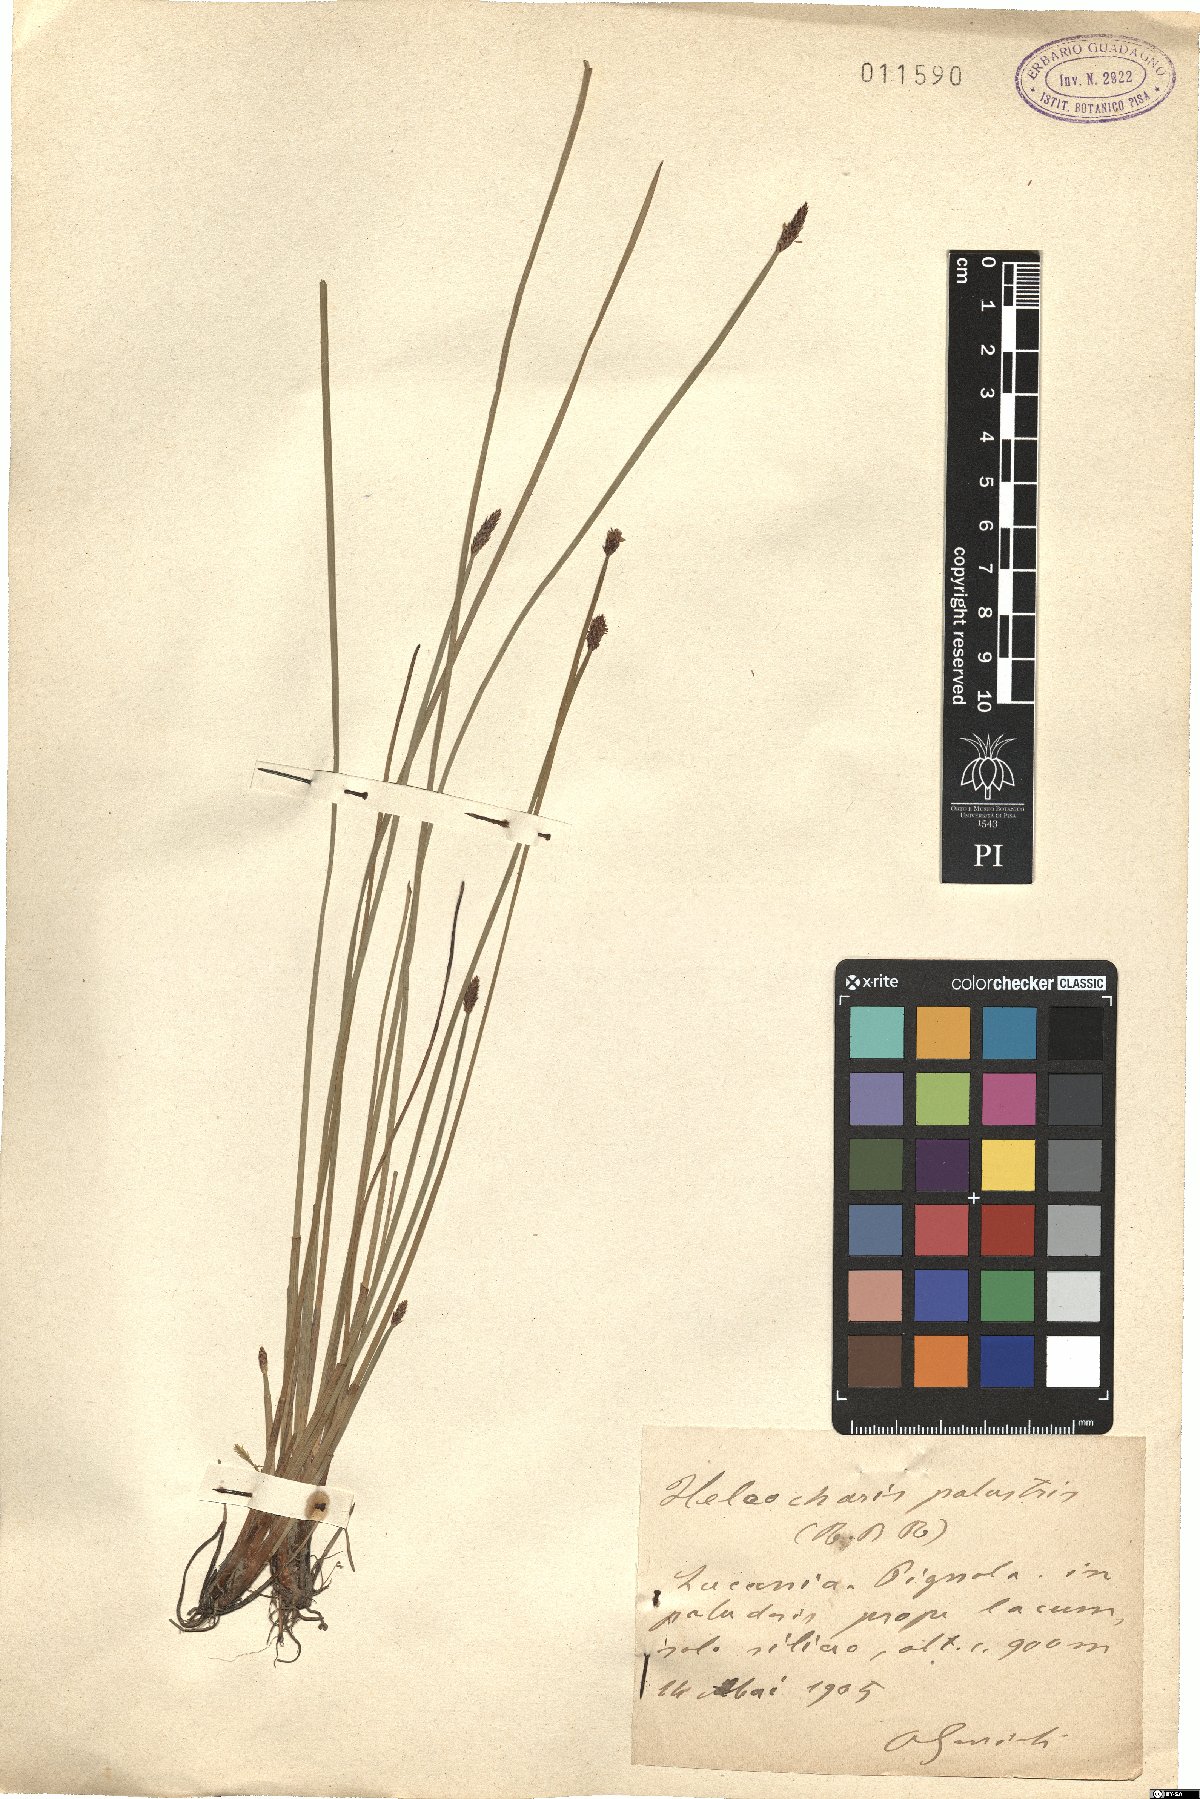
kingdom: Plantae
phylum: Tracheophyta
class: Liliopsida
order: Poales
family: Cyperaceae
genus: Eleocharis
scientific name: Eleocharis palustris
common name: Common spike-rush
